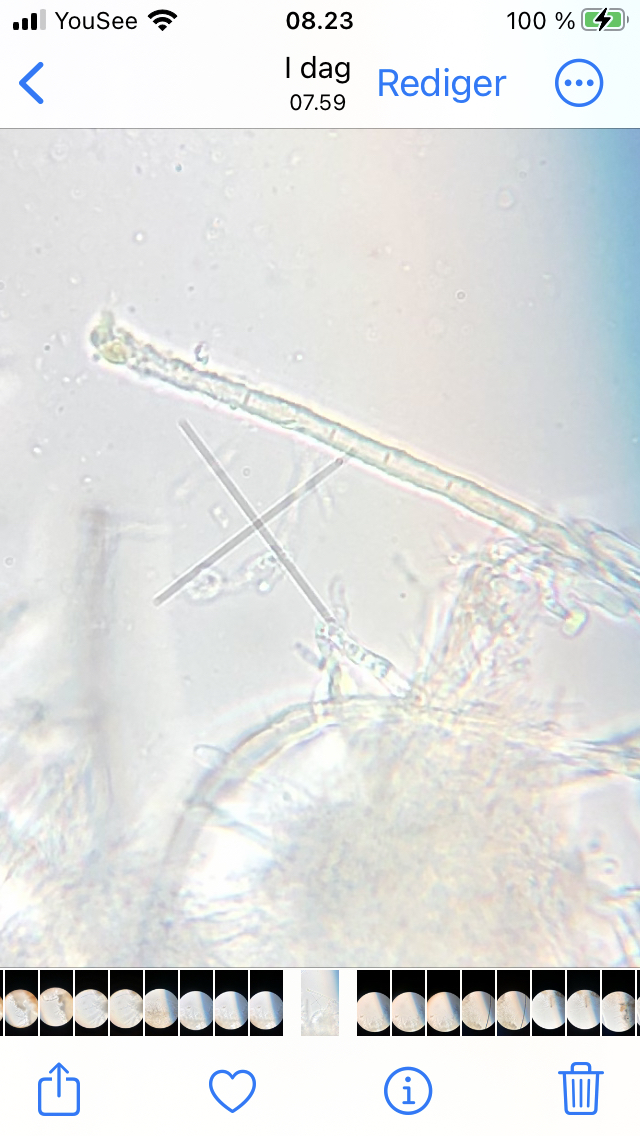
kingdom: Fungi
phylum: Ascomycota
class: Leotiomycetes
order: Helotiales
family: Lachnaceae
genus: Lachnum
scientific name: Lachnum mollissimum
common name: flødefarvet frynseskive
